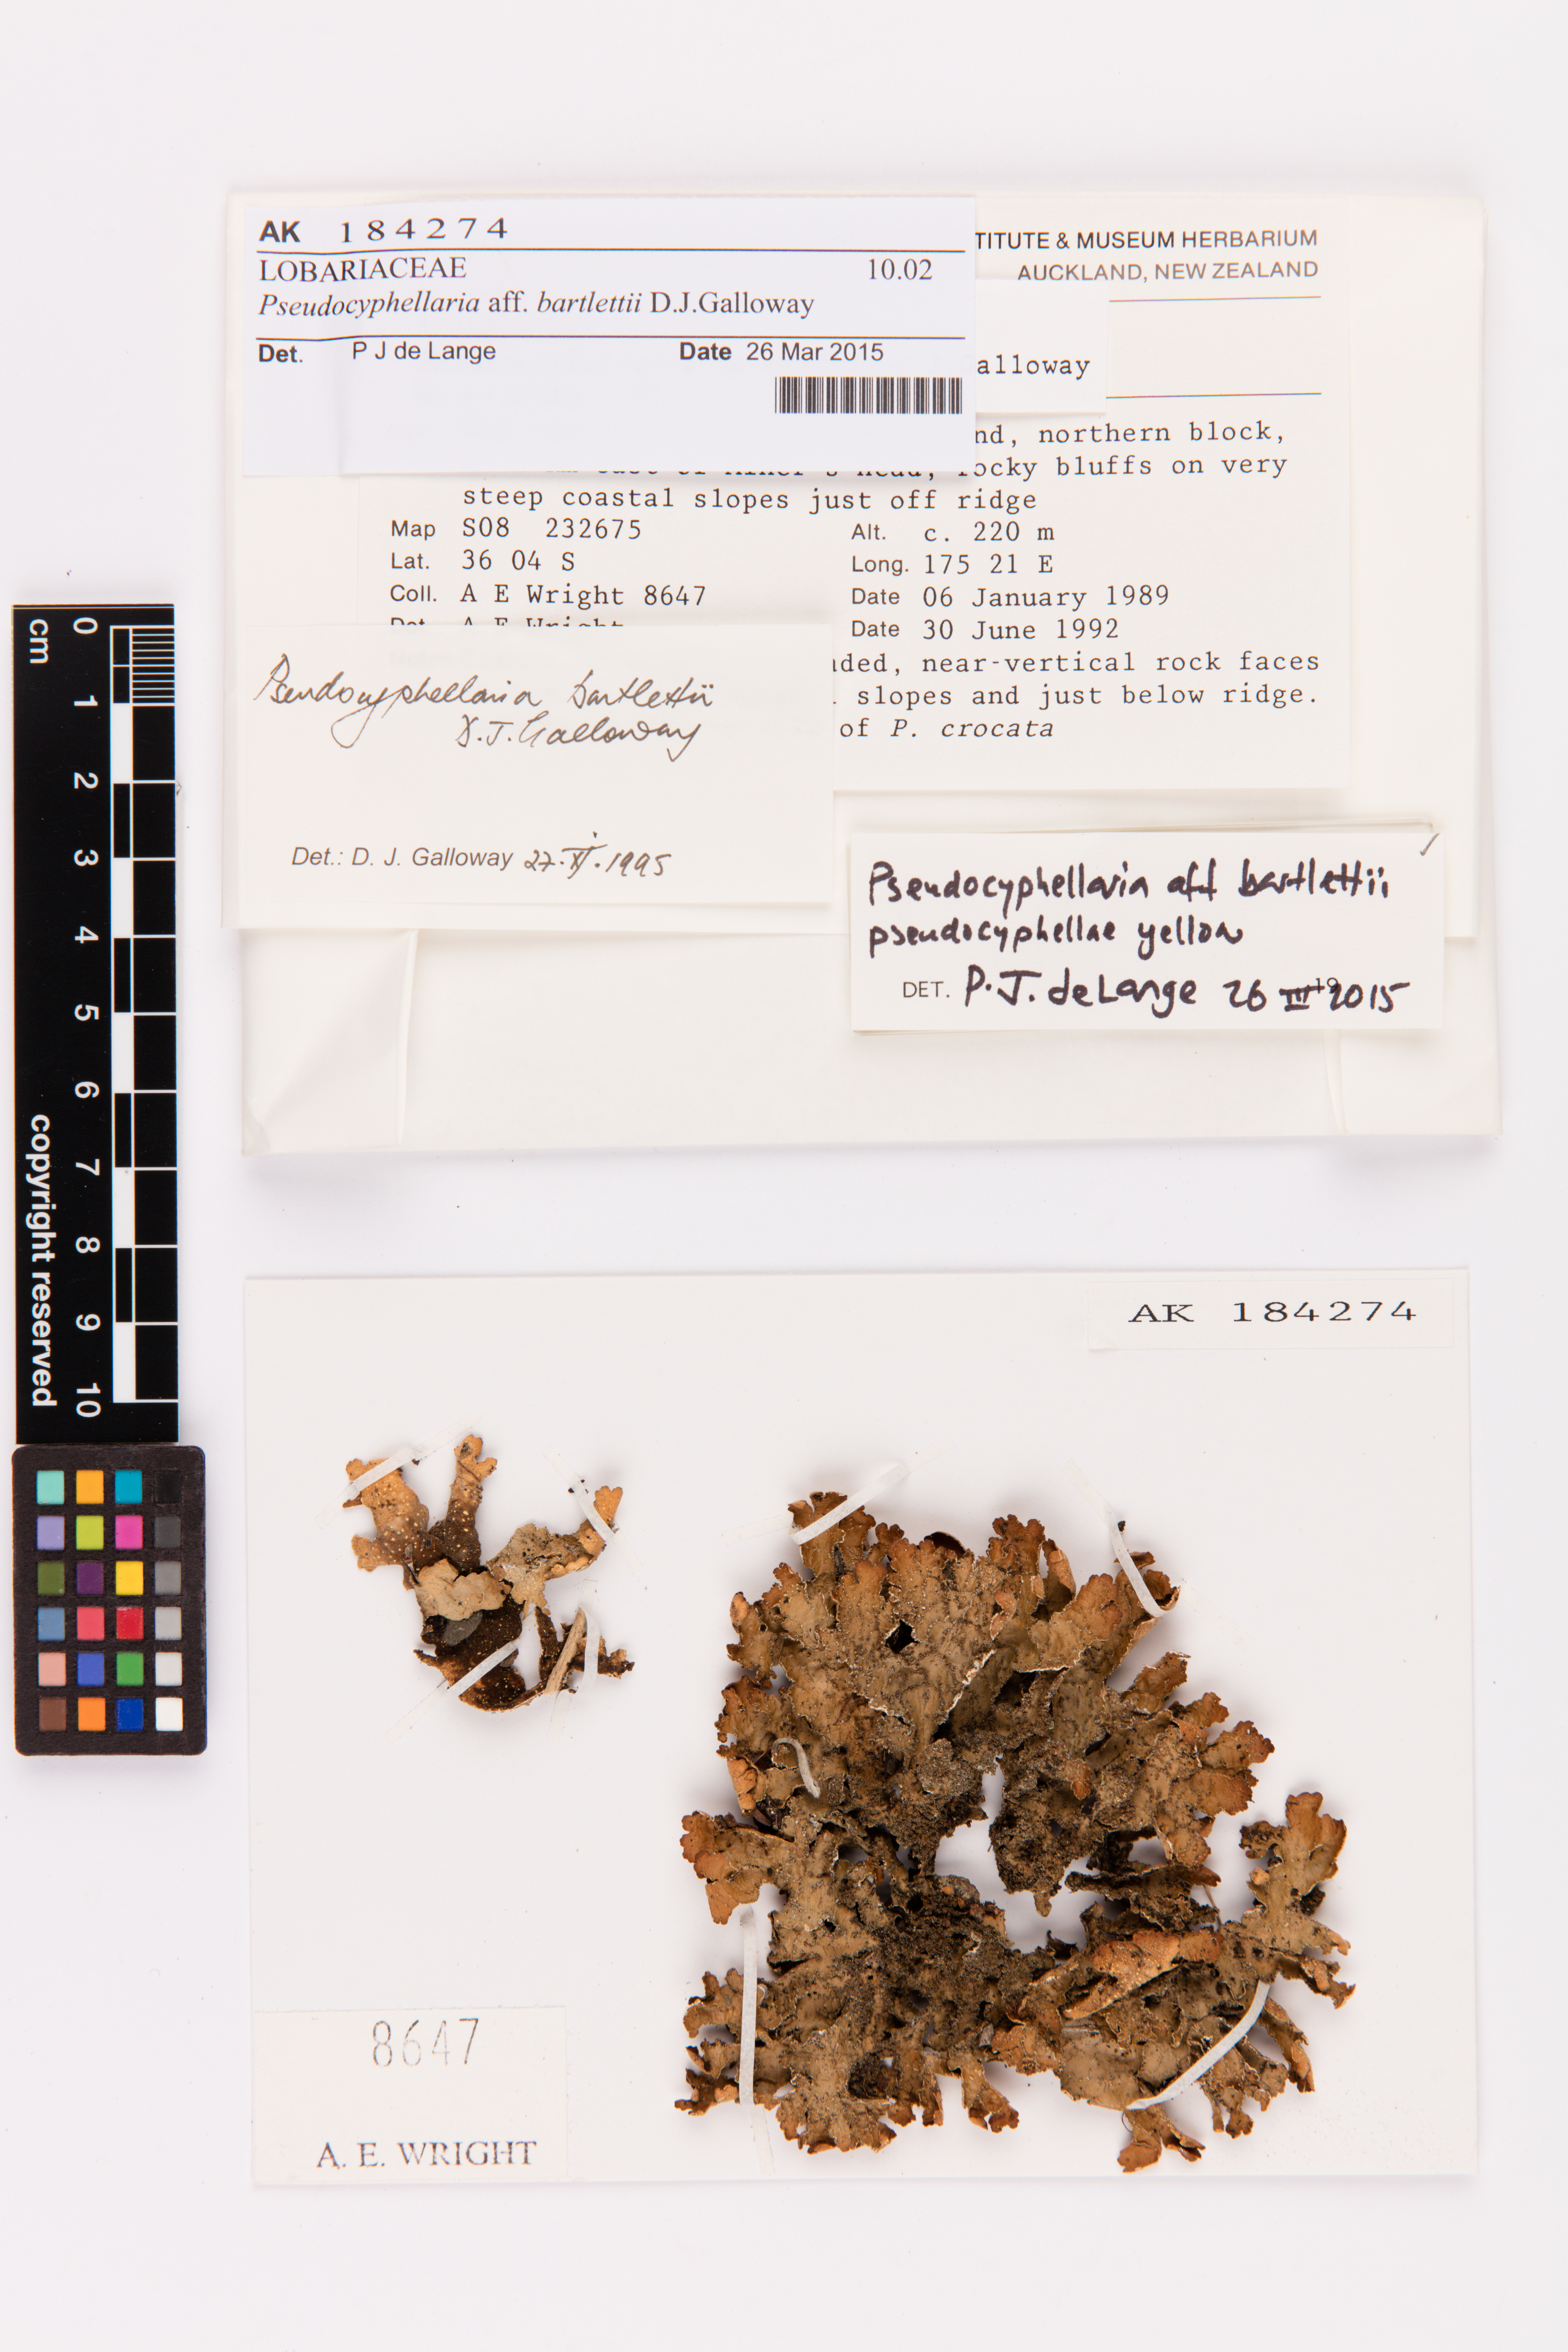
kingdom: Fungi
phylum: Ascomycota
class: Lecanoromycetes
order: Peltigerales
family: Lobariaceae
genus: Pseudocyphellaria
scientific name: Pseudocyphellaria bartlettii
